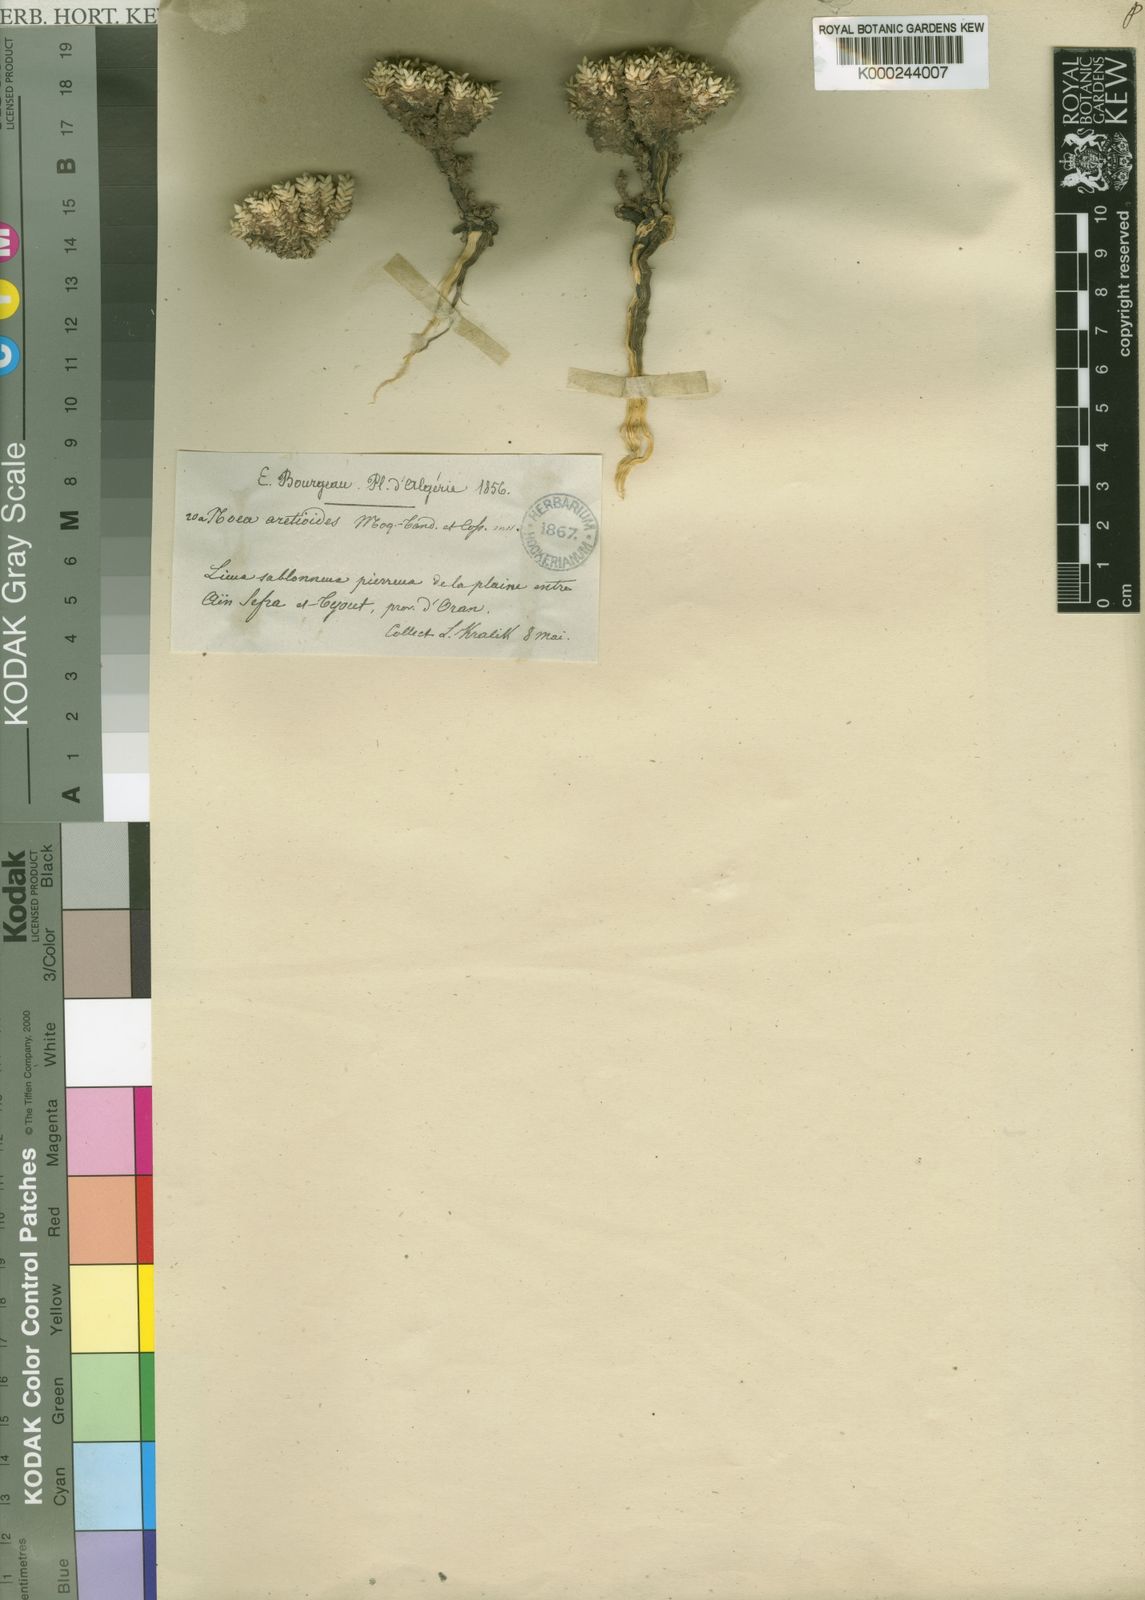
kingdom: Plantae
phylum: Tracheophyta
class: Magnoliopsida
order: Caryophyllales
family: Amaranthaceae
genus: Anabasis
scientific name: Anabasis
